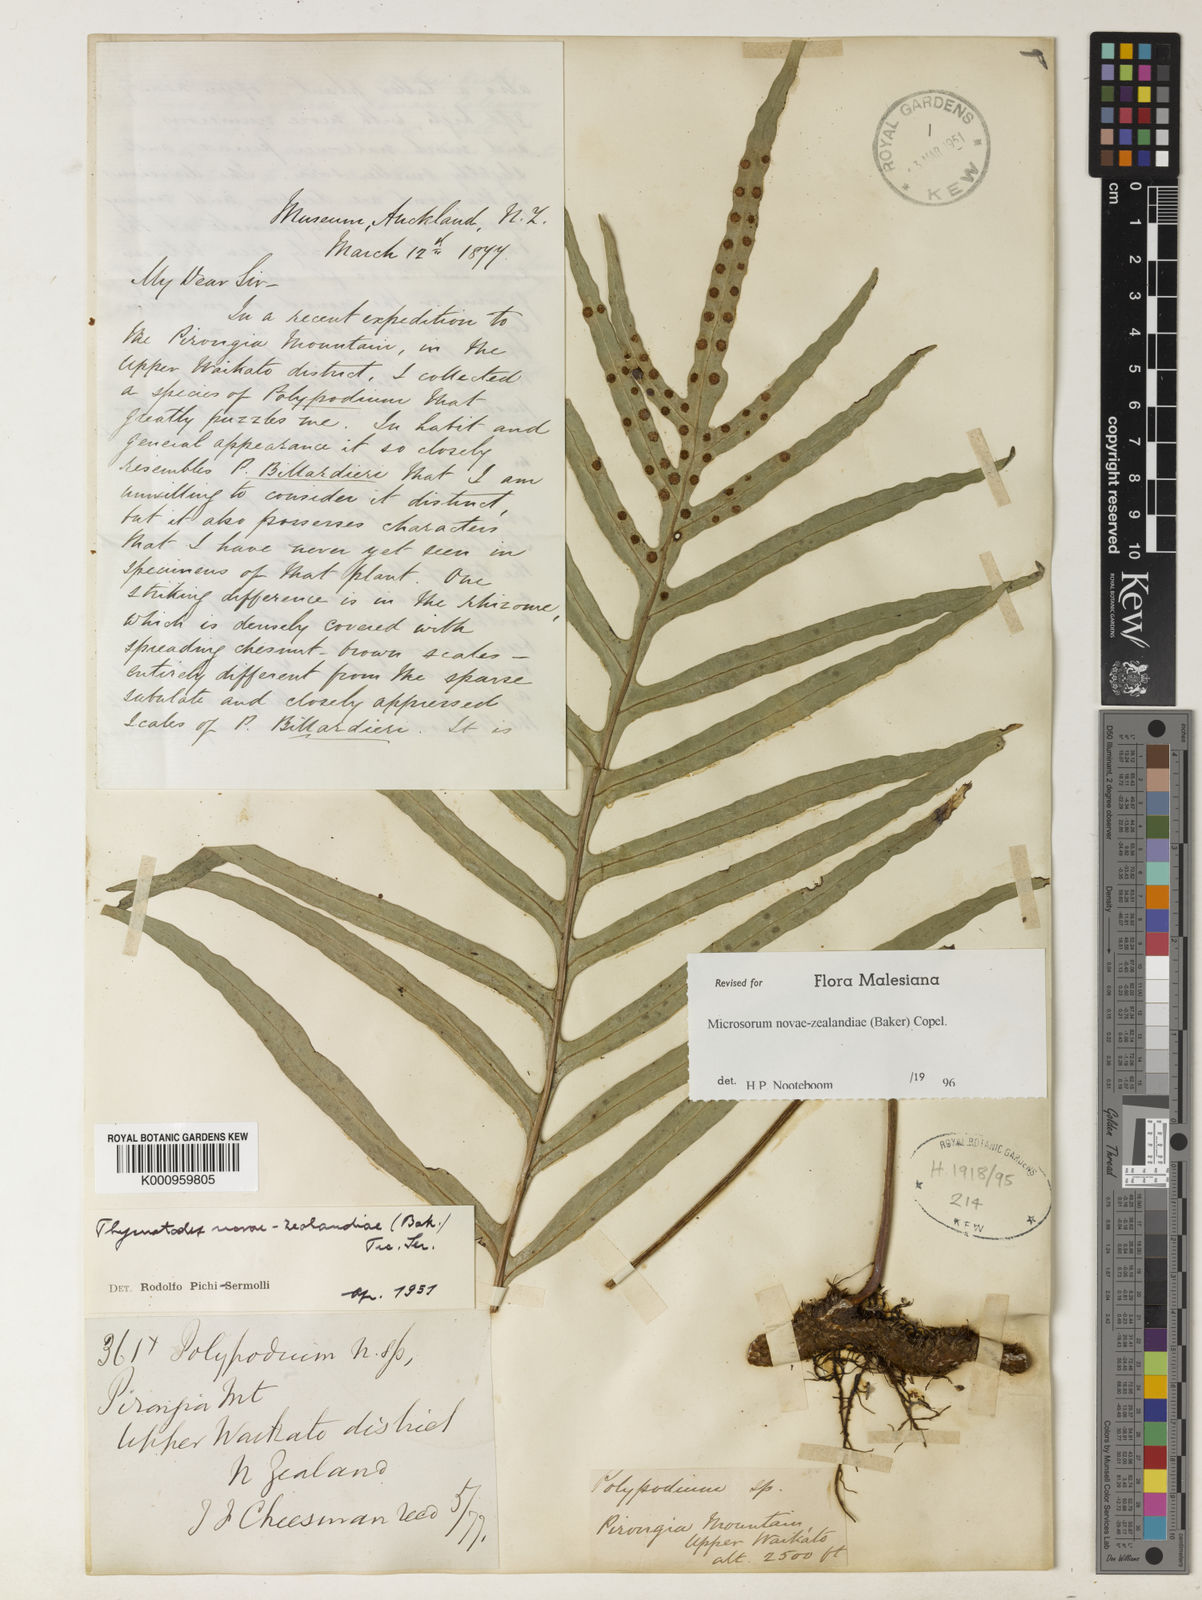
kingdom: Plantae
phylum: Tracheophyta
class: Polypodiopsida
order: Polypodiales
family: Polypodiaceae
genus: Lecanopteris
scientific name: Lecanopteris novae-zealandiae
